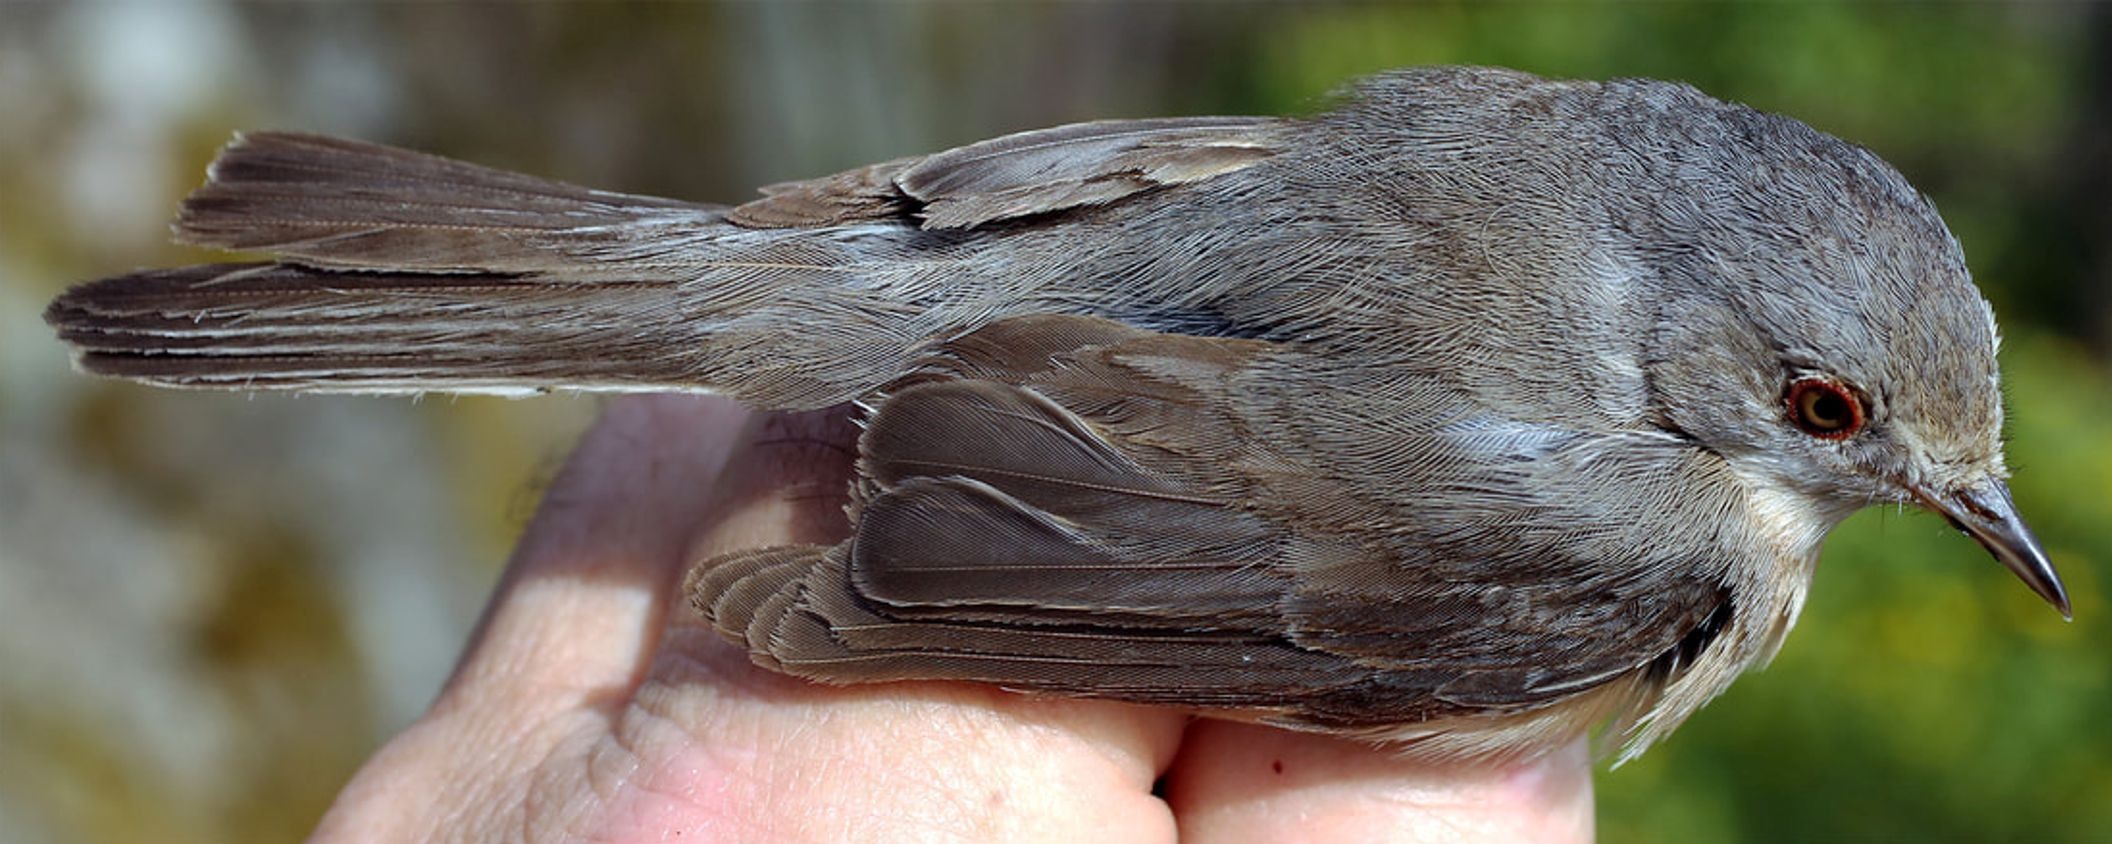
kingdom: Animalia
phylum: Chordata
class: Aves
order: Passeriformes
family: Sylviidae
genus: Curruca
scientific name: Curruca cantillans
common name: Subalpine warbler
